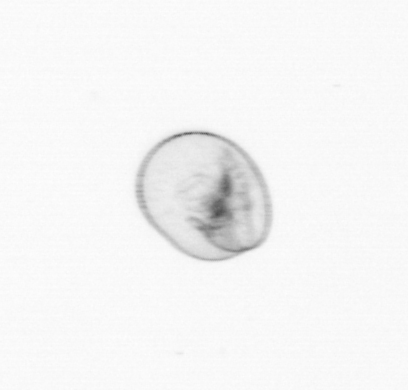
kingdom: Chromista
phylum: Myzozoa
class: Dinophyceae
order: Noctilucales
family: Noctilucaceae
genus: Noctiluca
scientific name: Noctiluca scintillans
